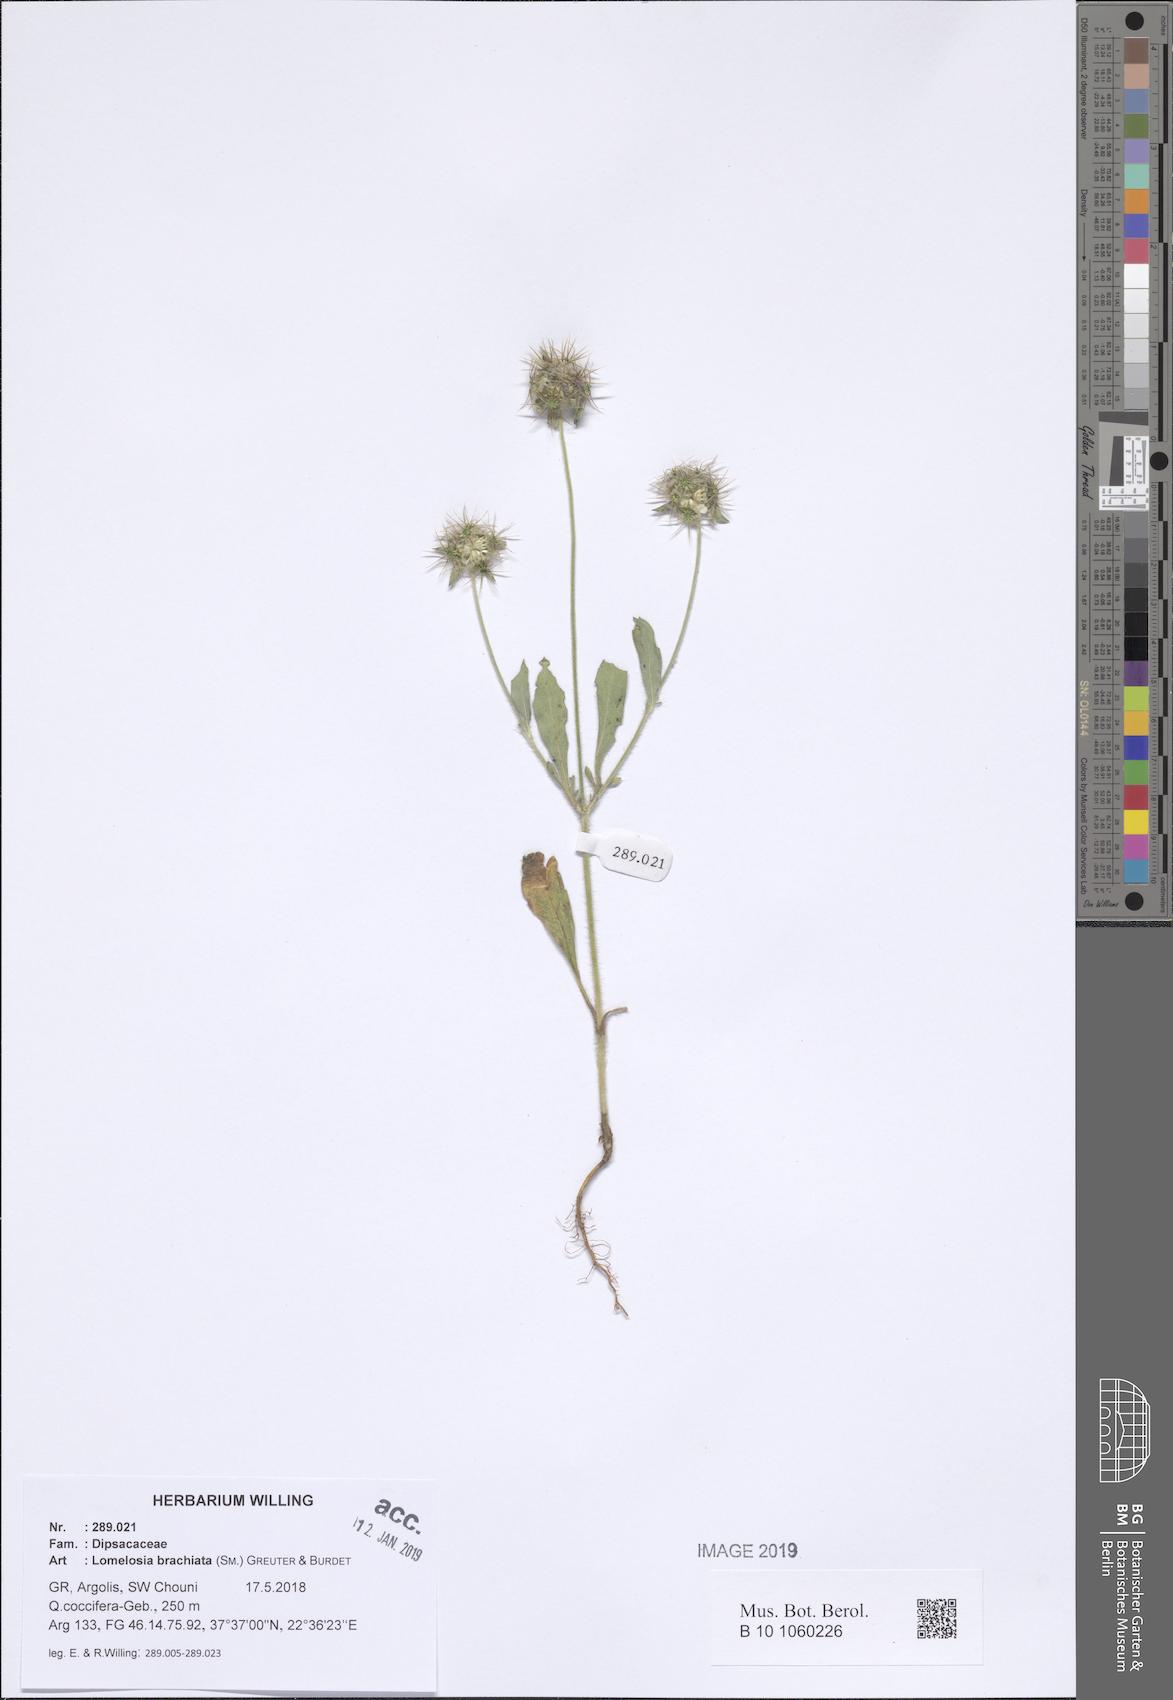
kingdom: Plantae
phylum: Tracheophyta
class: Magnoliopsida
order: Dipsacales
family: Caprifoliaceae
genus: Lomelosia
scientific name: Lomelosia brachiata
